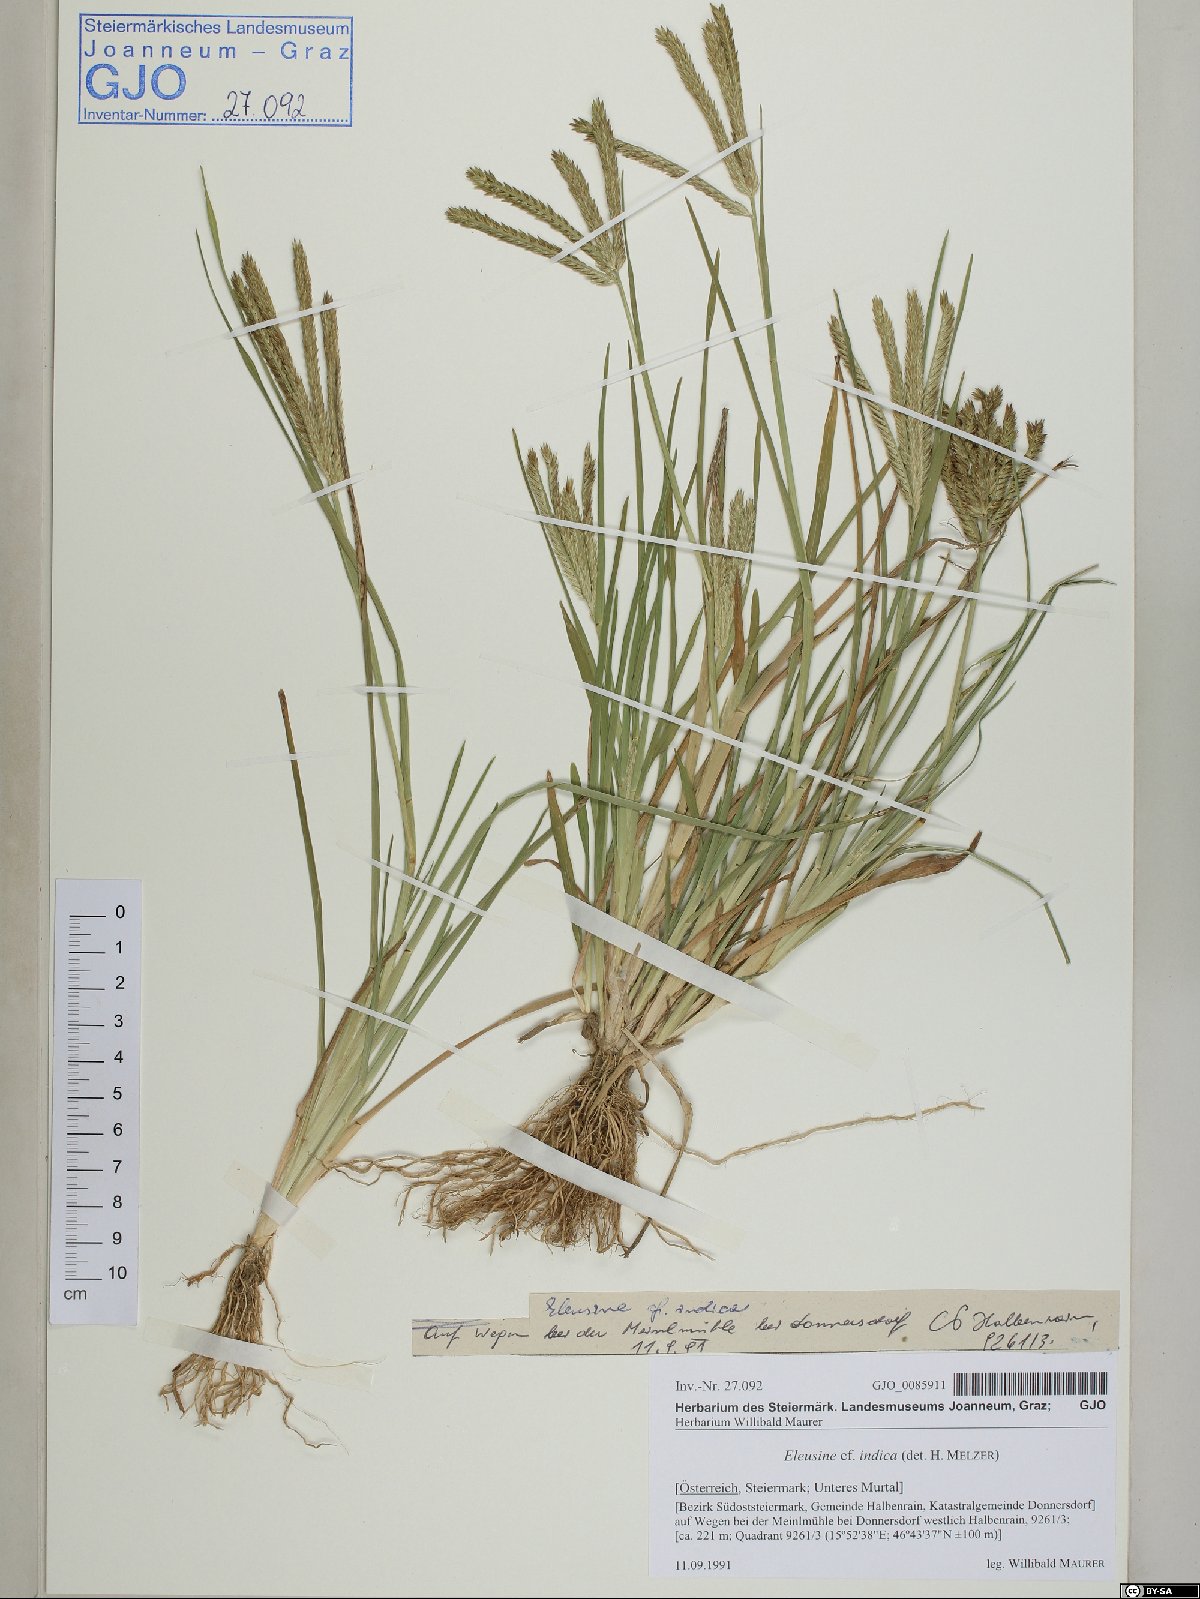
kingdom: Plantae
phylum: Tracheophyta
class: Liliopsida
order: Poales
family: Poaceae
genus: Eleusine
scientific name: Eleusine indica
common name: Yard-grass
